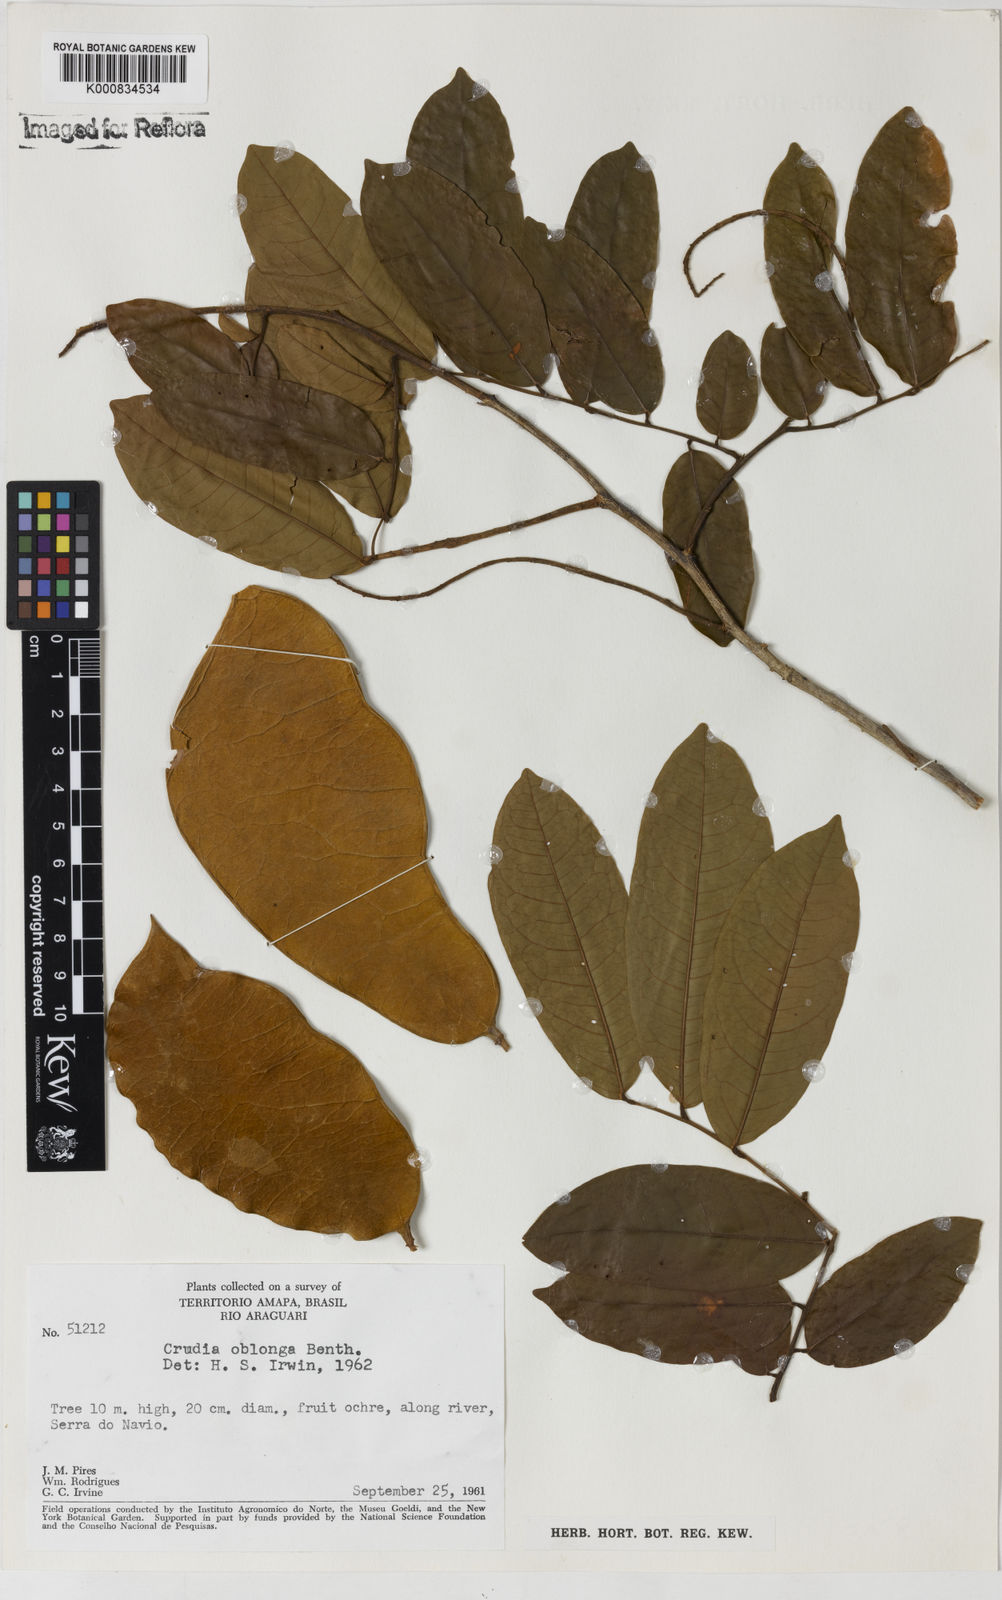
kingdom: Plantae
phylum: Tracheophyta
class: Magnoliopsida
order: Fabales
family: Fabaceae
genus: Crudia
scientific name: Crudia glaberrima
